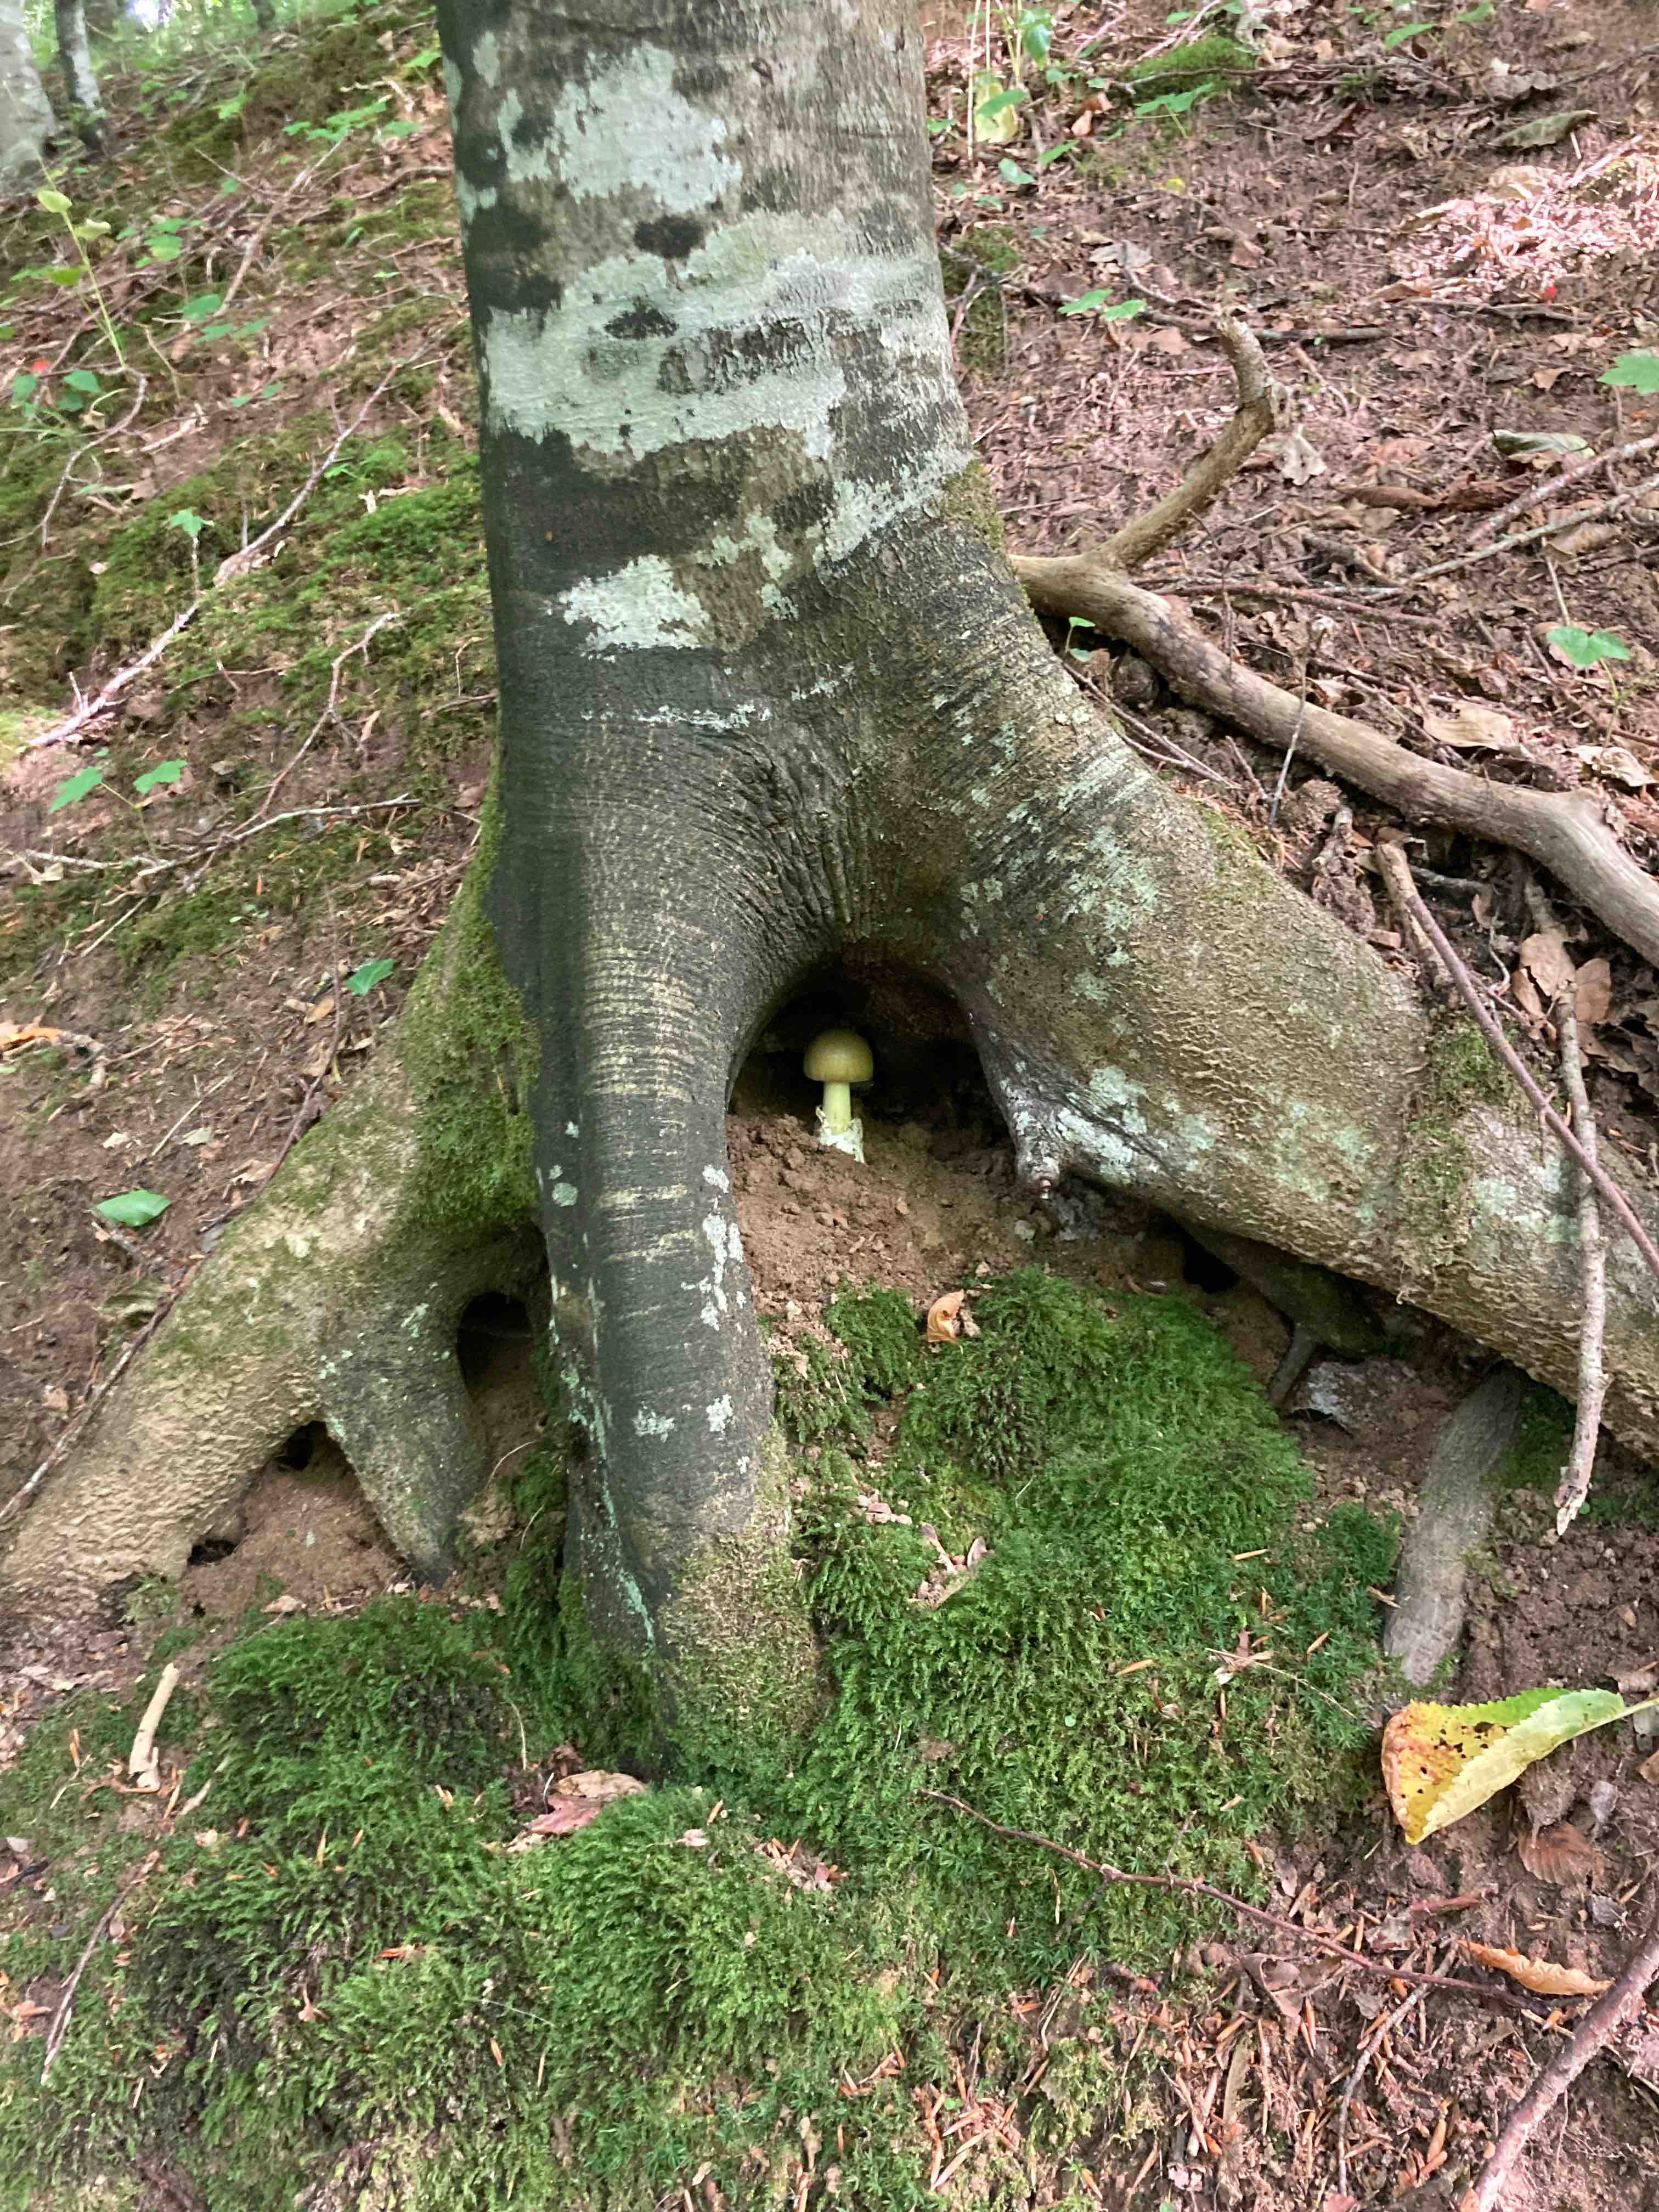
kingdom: Fungi
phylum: Basidiomycota
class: Agaricomycetes
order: Agaricales
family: Amanitaceae
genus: Amanita
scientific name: Amanita phalloides
